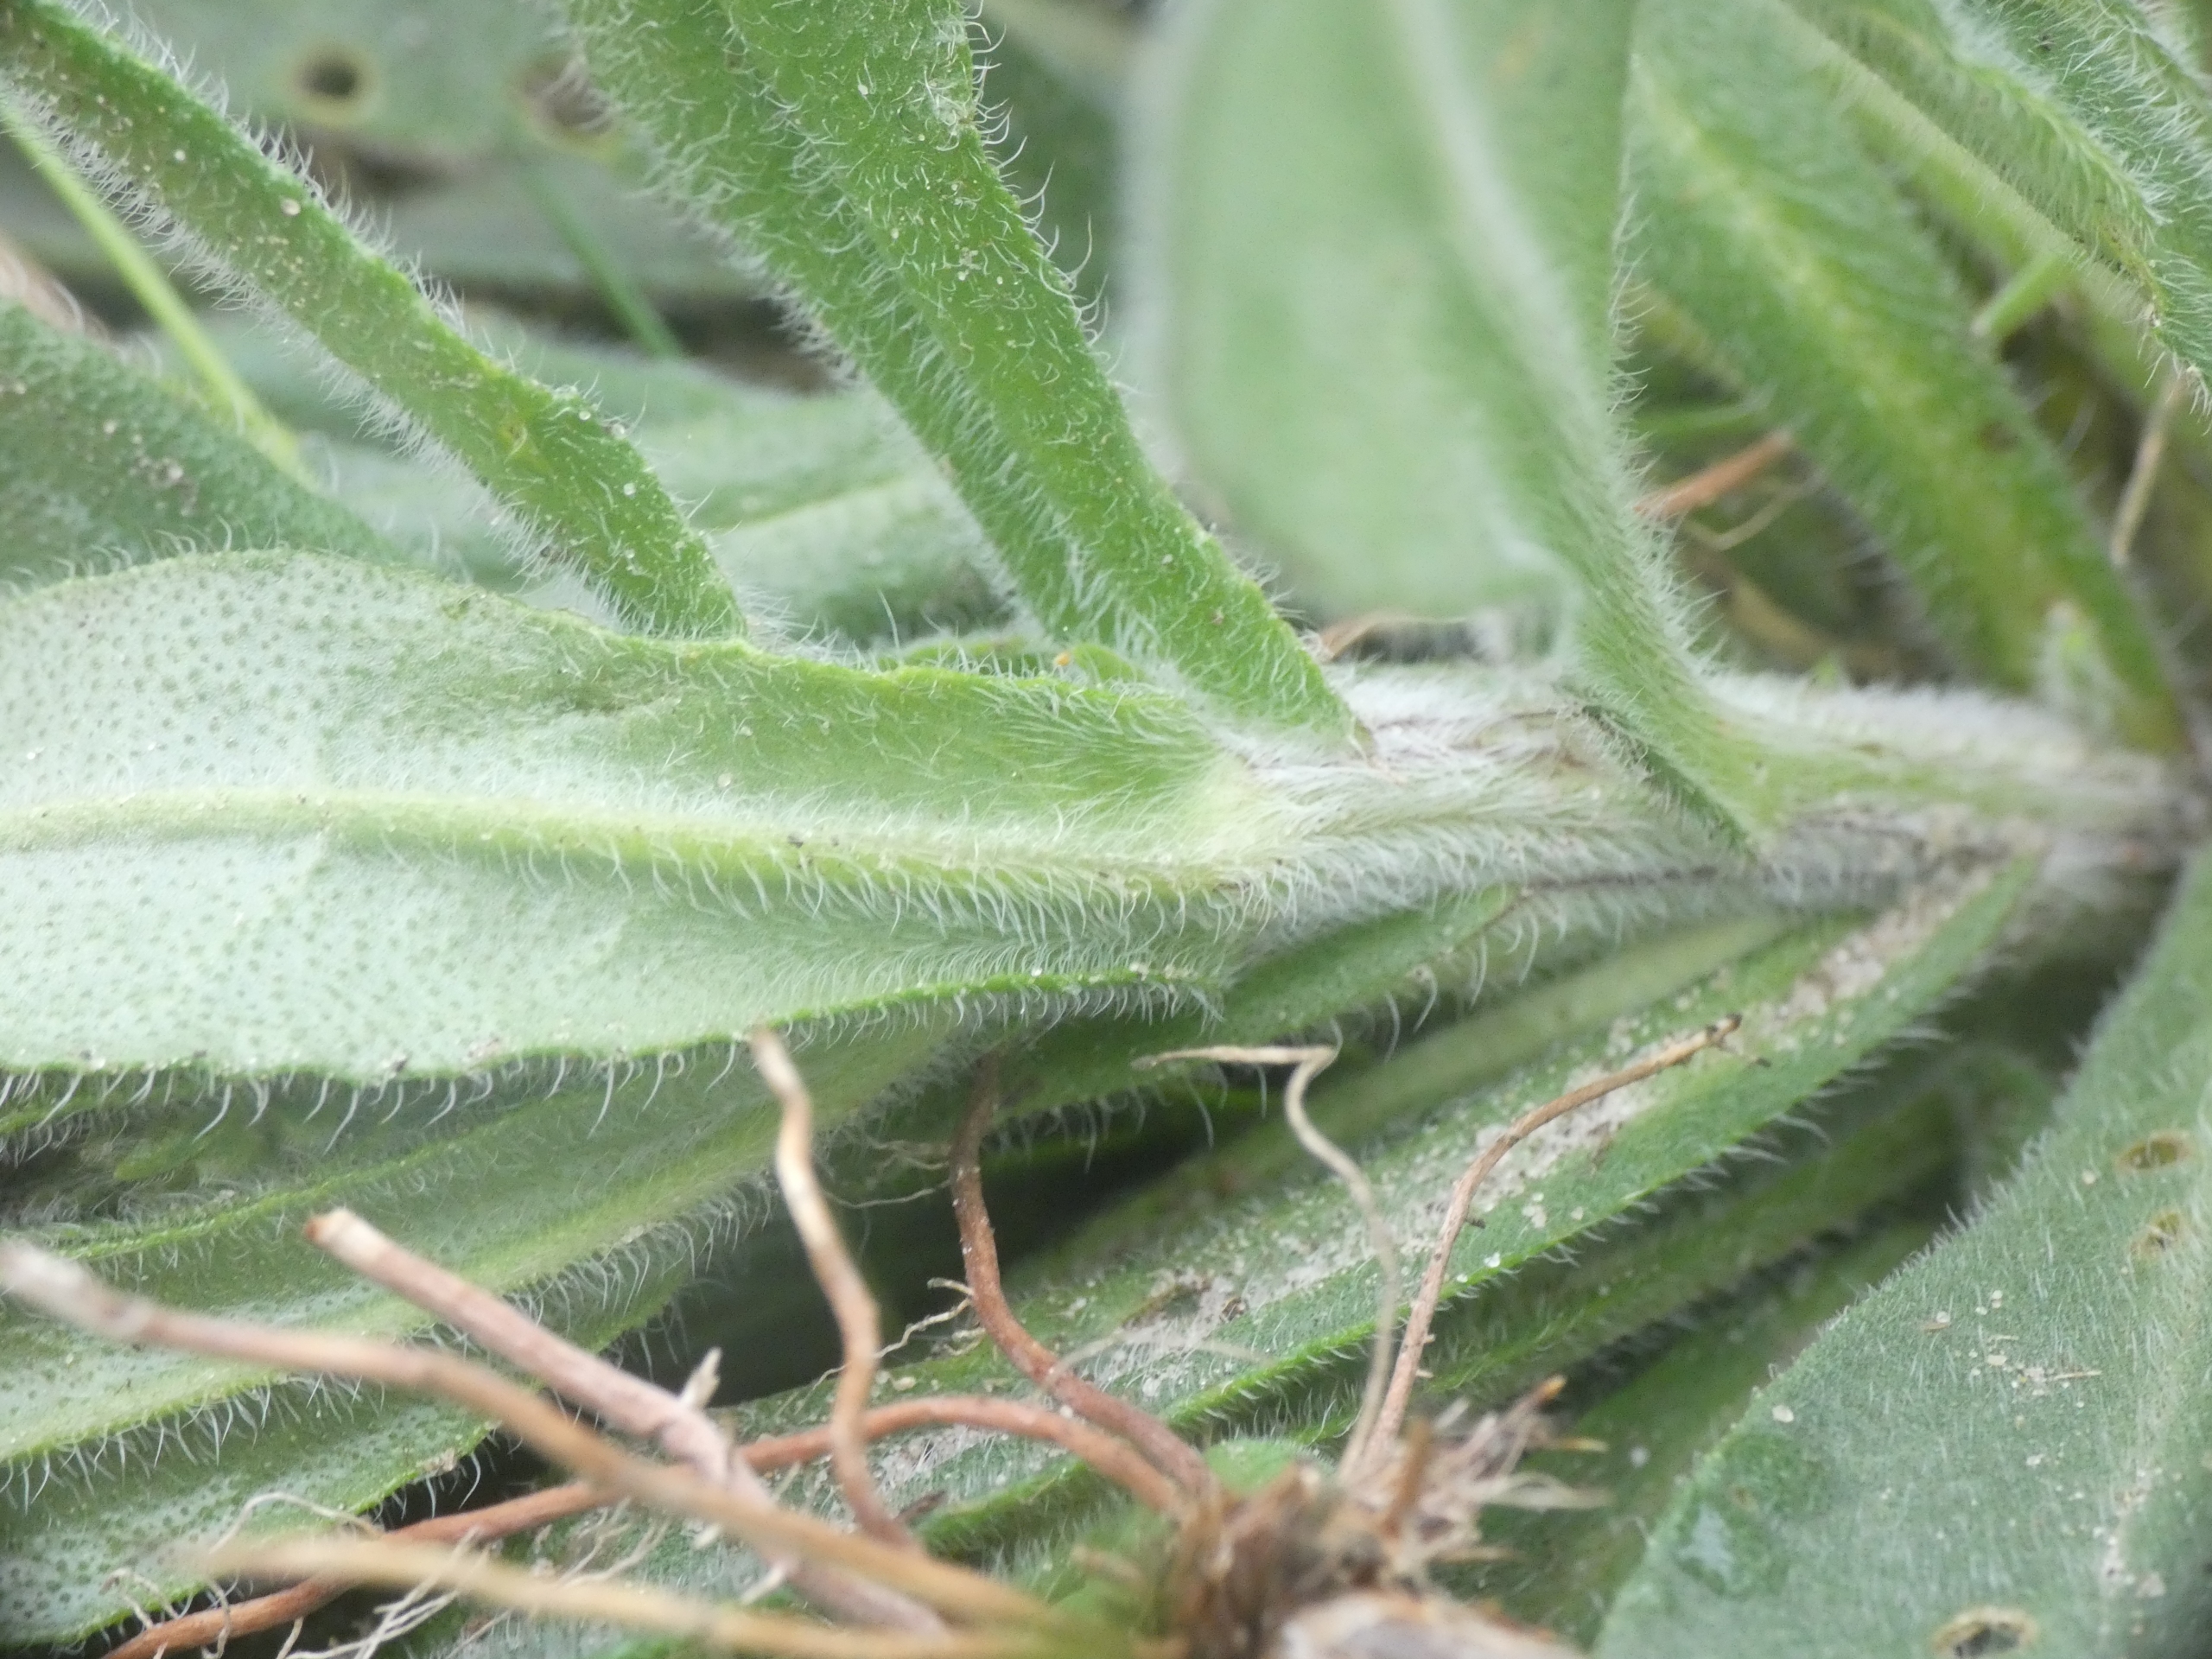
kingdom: Plantae
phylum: Tracheophyta
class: Magnoliopsida
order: Boraginales
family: Boraginaceae
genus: Anchusa
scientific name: Anchusa officinalis
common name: Læge-oksetunge
